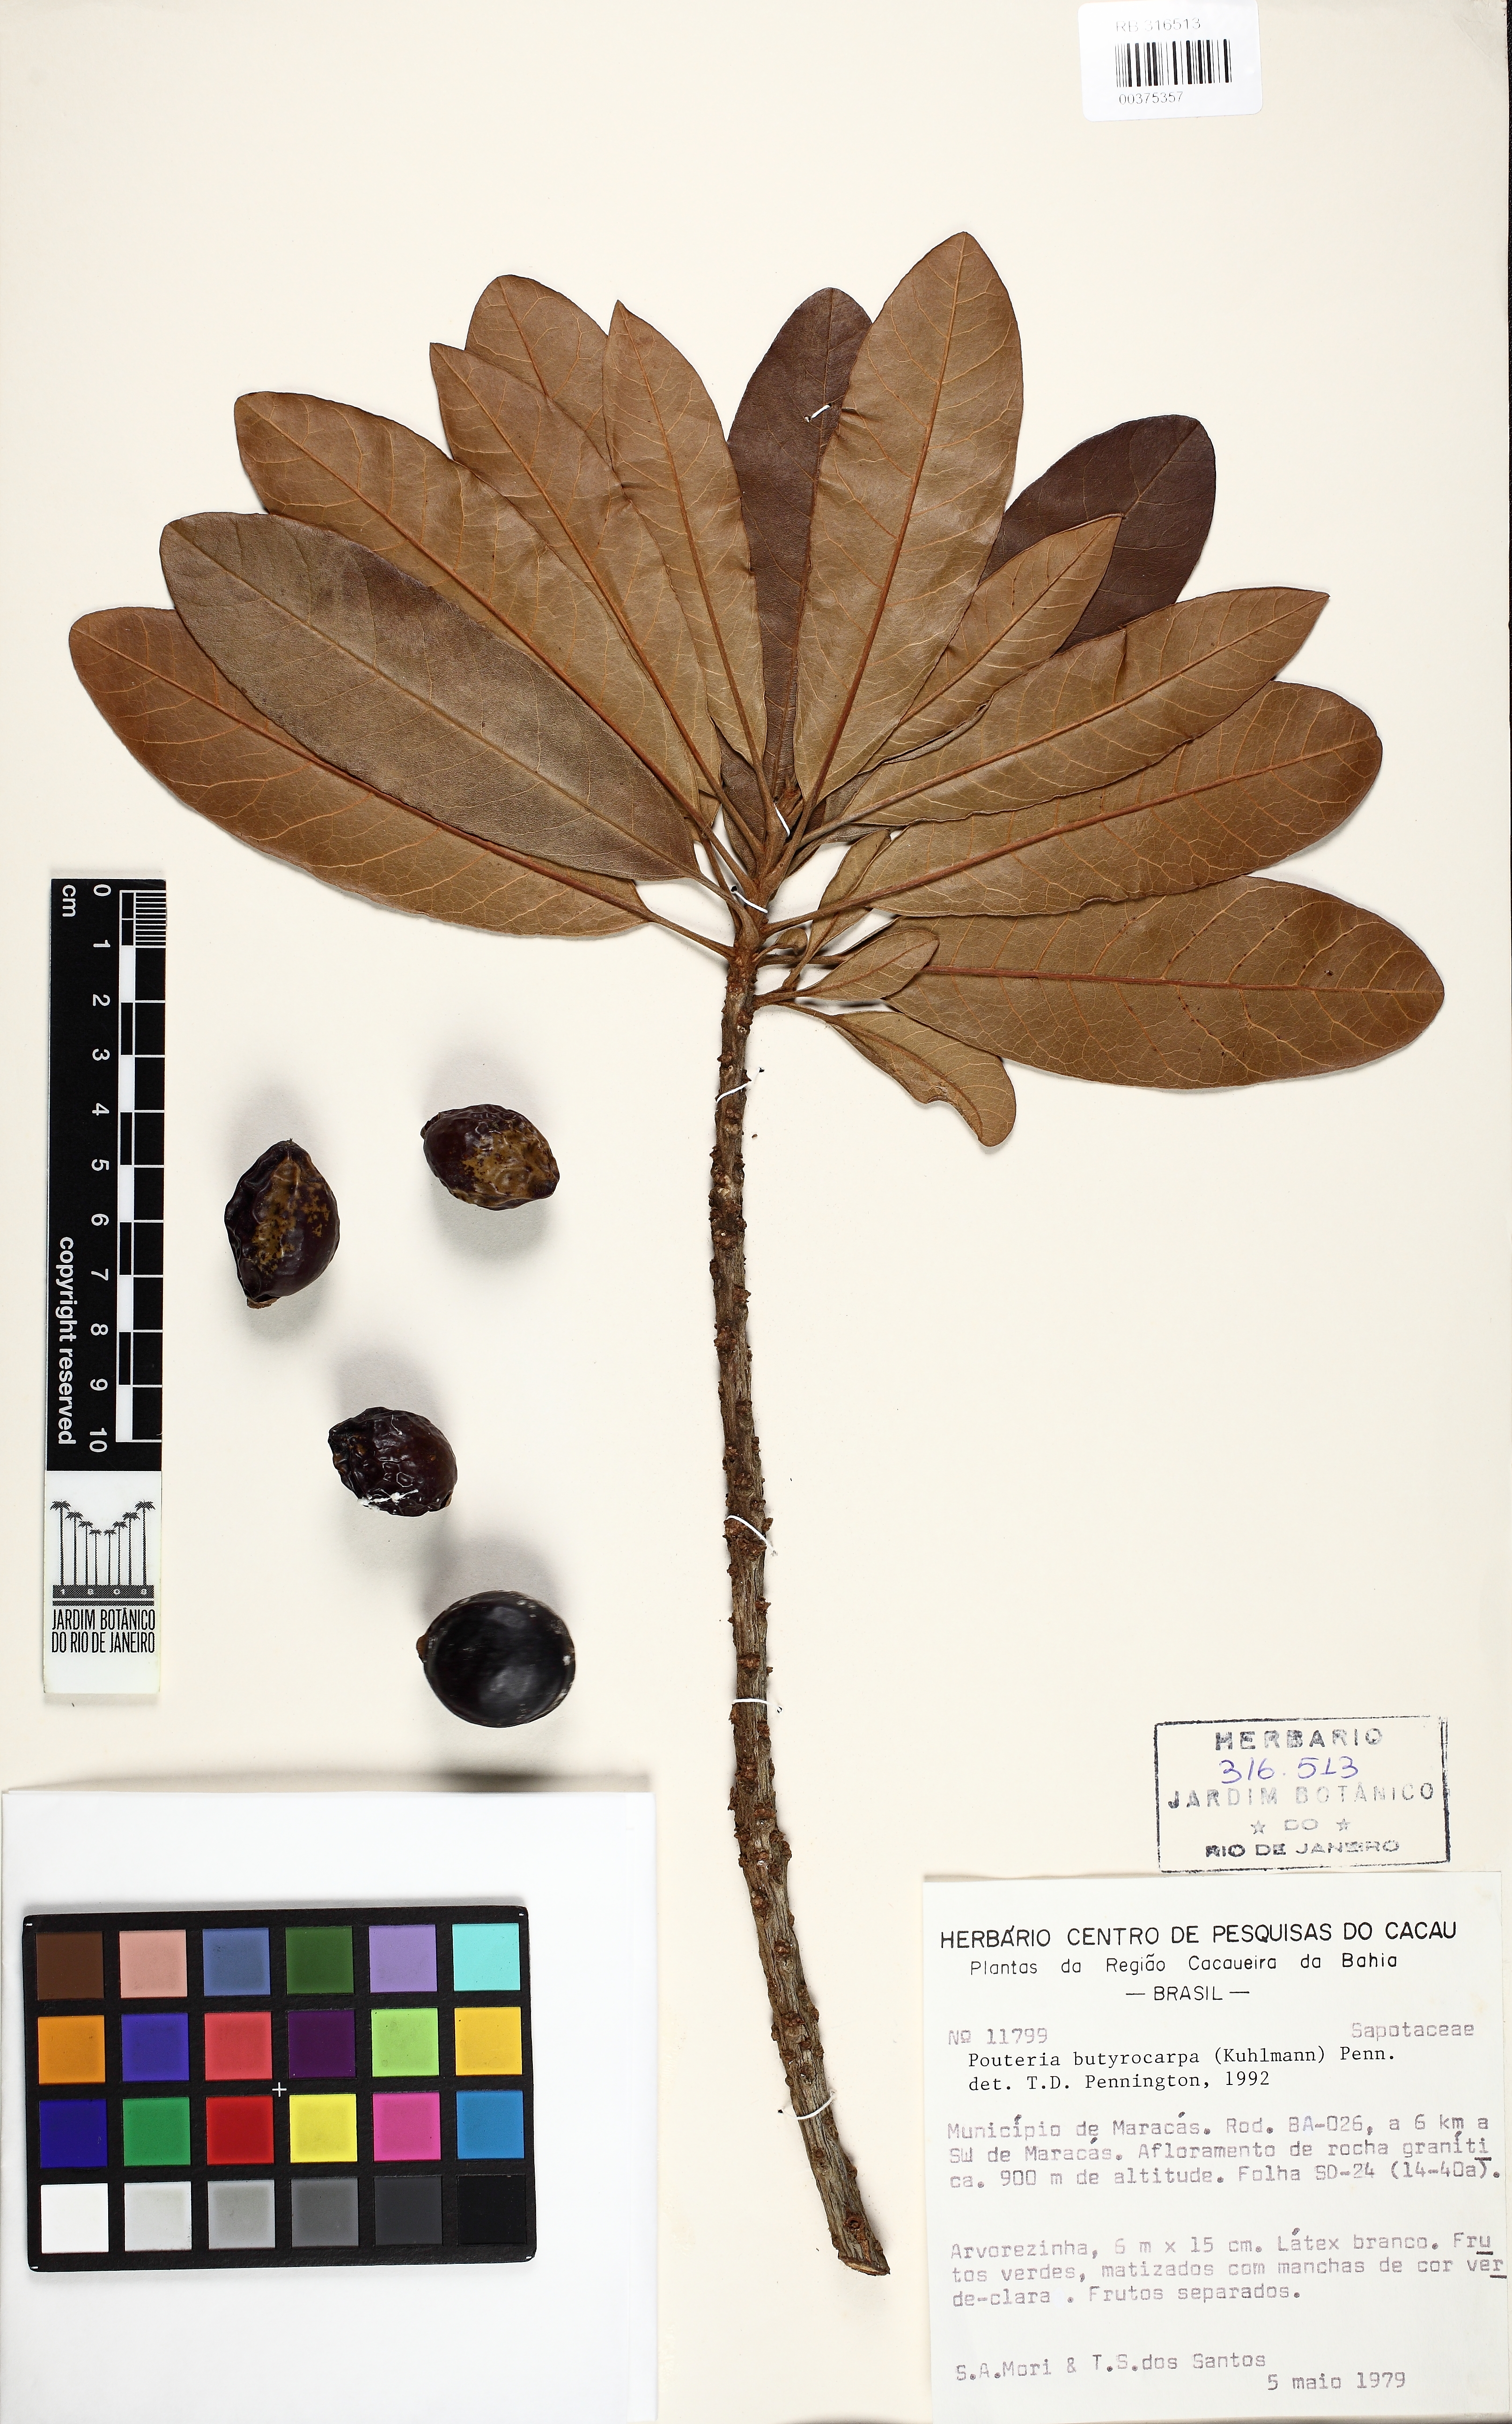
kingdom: Plantae
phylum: Tracheophyta
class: Magnoliopsida
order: Ericales
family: Sapotaceae
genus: Pouteria
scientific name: Pouteria butyrocarpa
